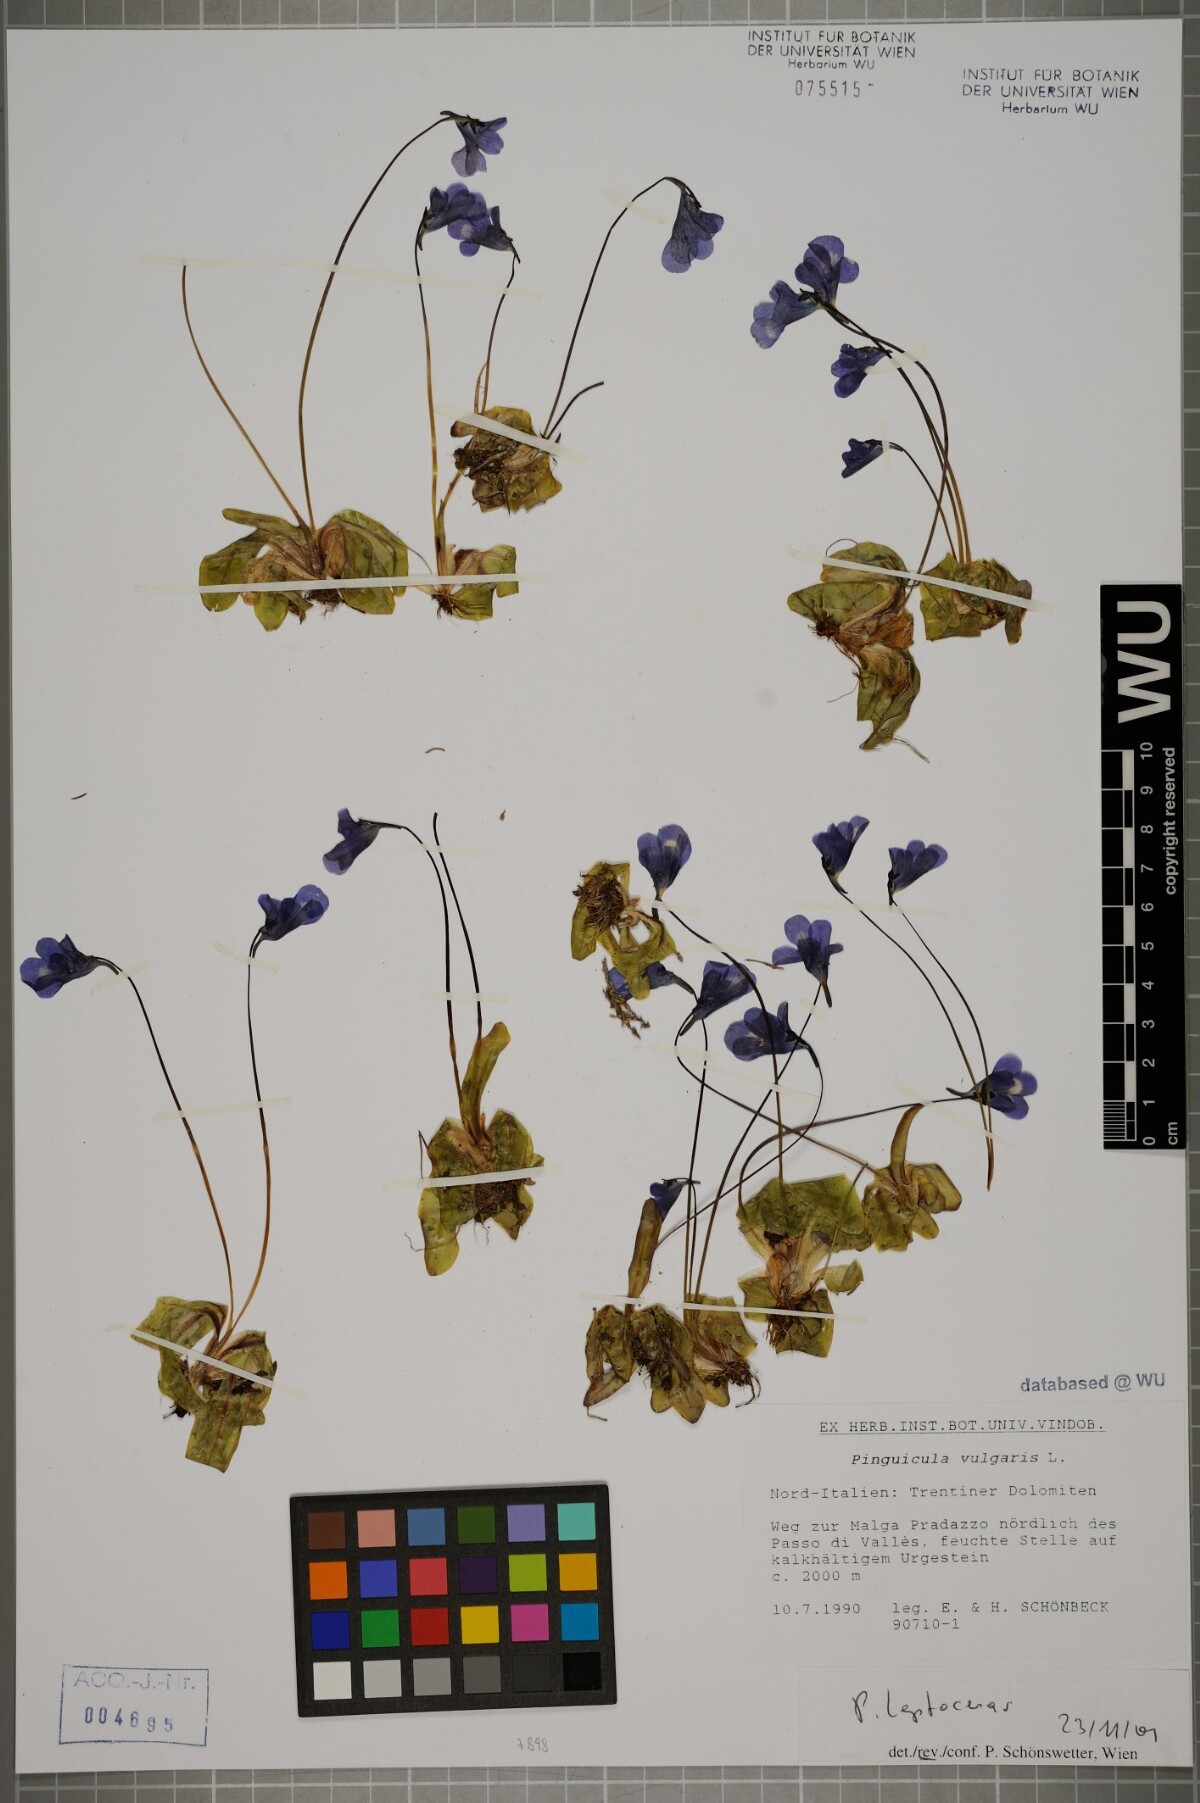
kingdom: Plantae
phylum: Tracheophyta
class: Magnoliopsida
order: Lamiales
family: Lentibulariaceae
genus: Pinguicula
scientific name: Pinguicula leptoceras
